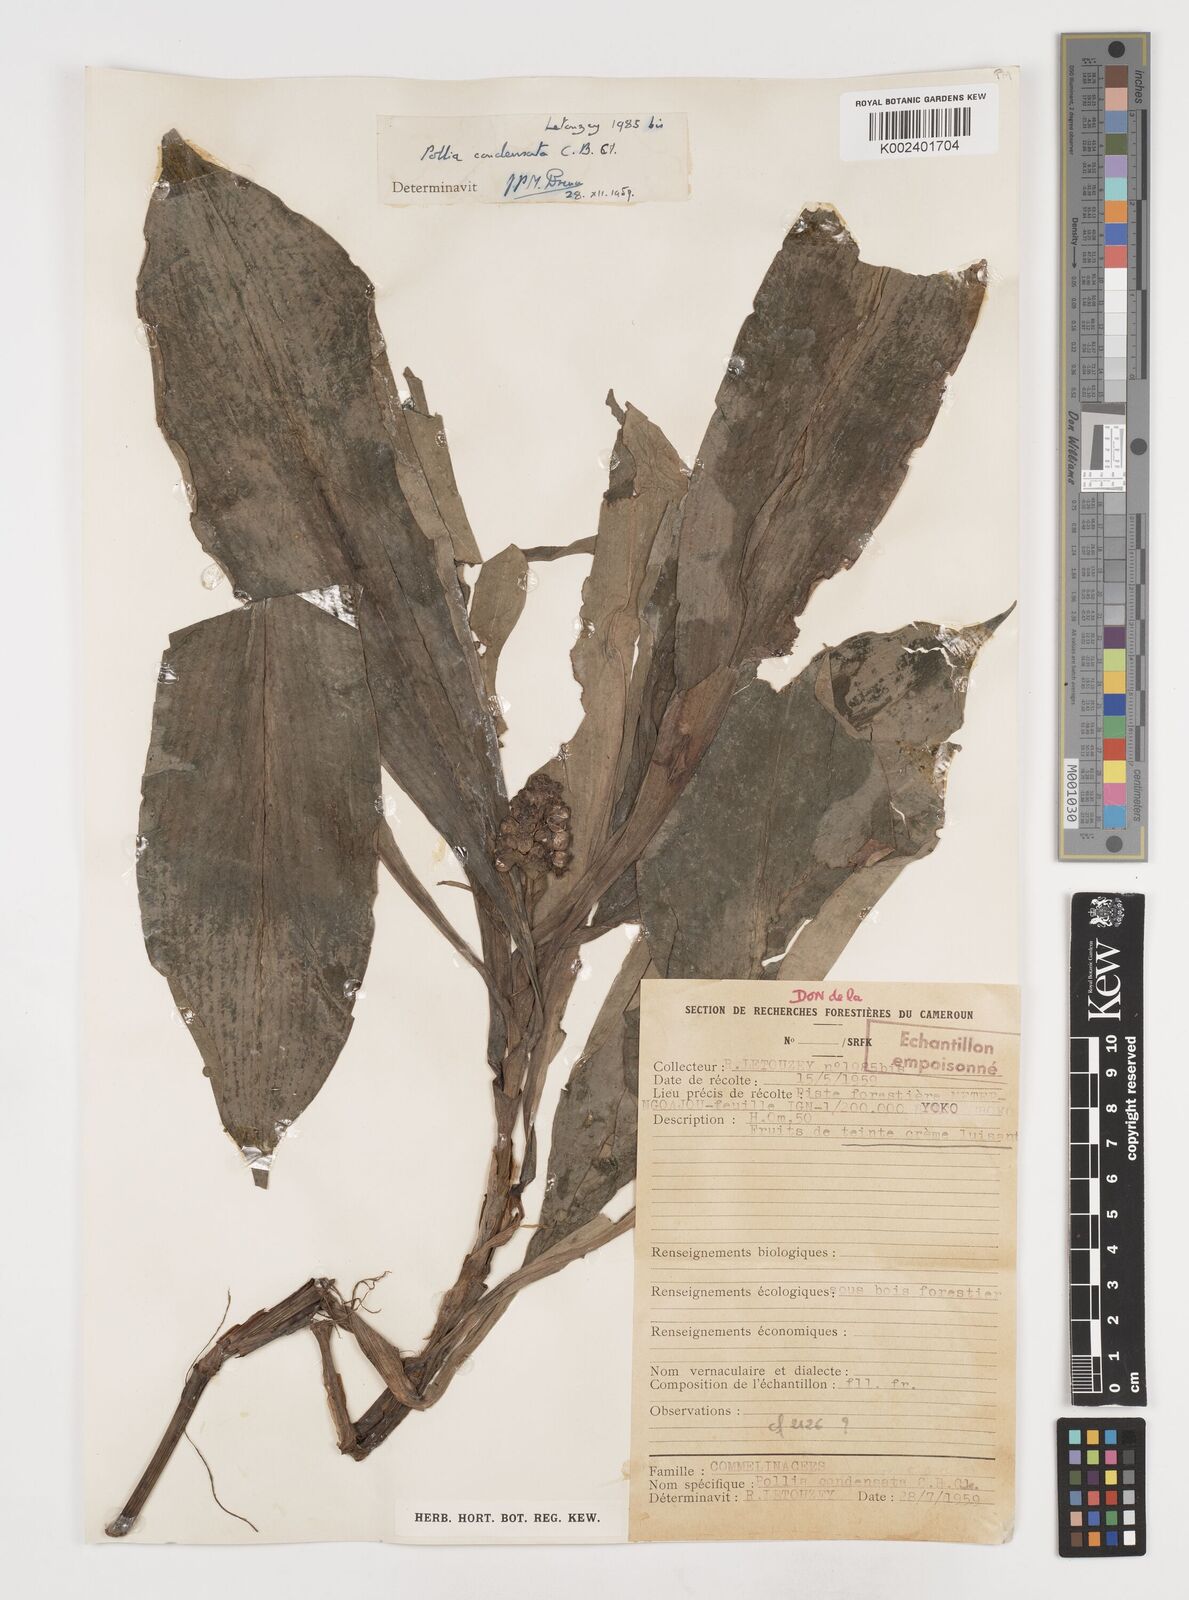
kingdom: Plantae
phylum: Tracheophyta
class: Liliopsida
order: Commelinales
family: Commelinaceae
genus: Pollia
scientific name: Pollia condensata
